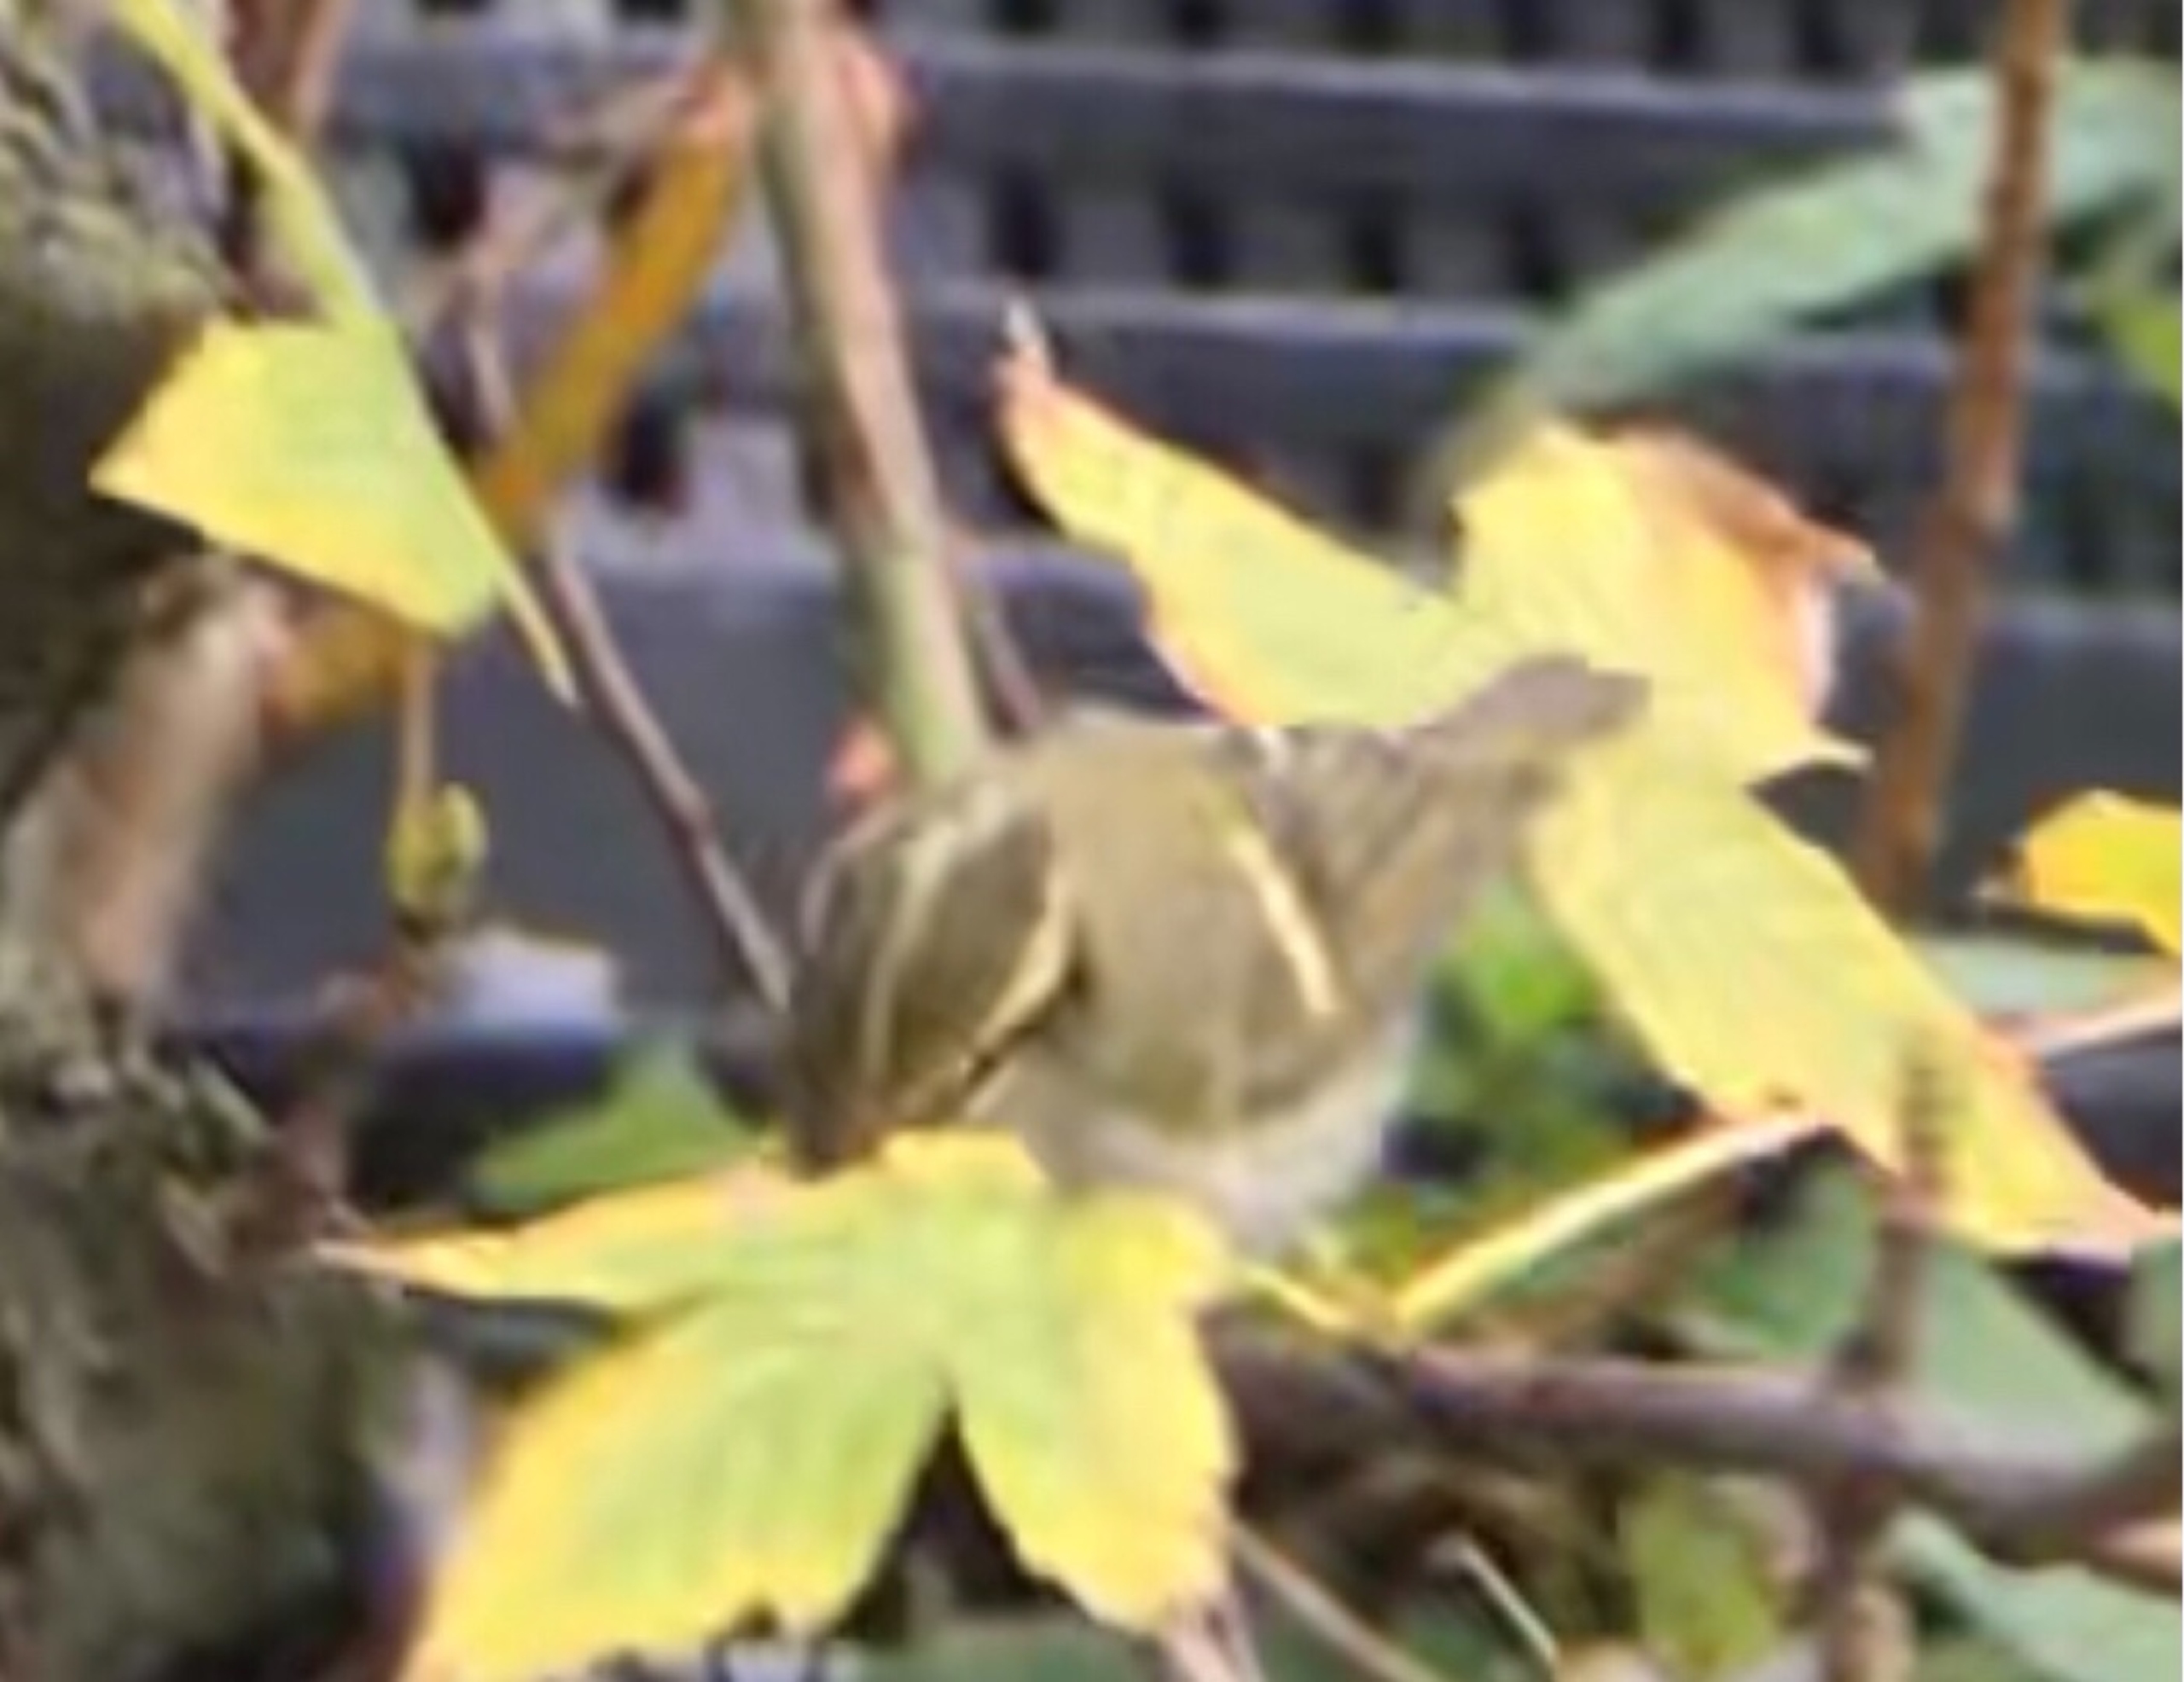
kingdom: Animalia
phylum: Chordata
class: Aves
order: Passeriformes
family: Phylloscopidae
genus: Phylloscopus
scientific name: Phylloscopus proregulus
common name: Fuglekongesanger
